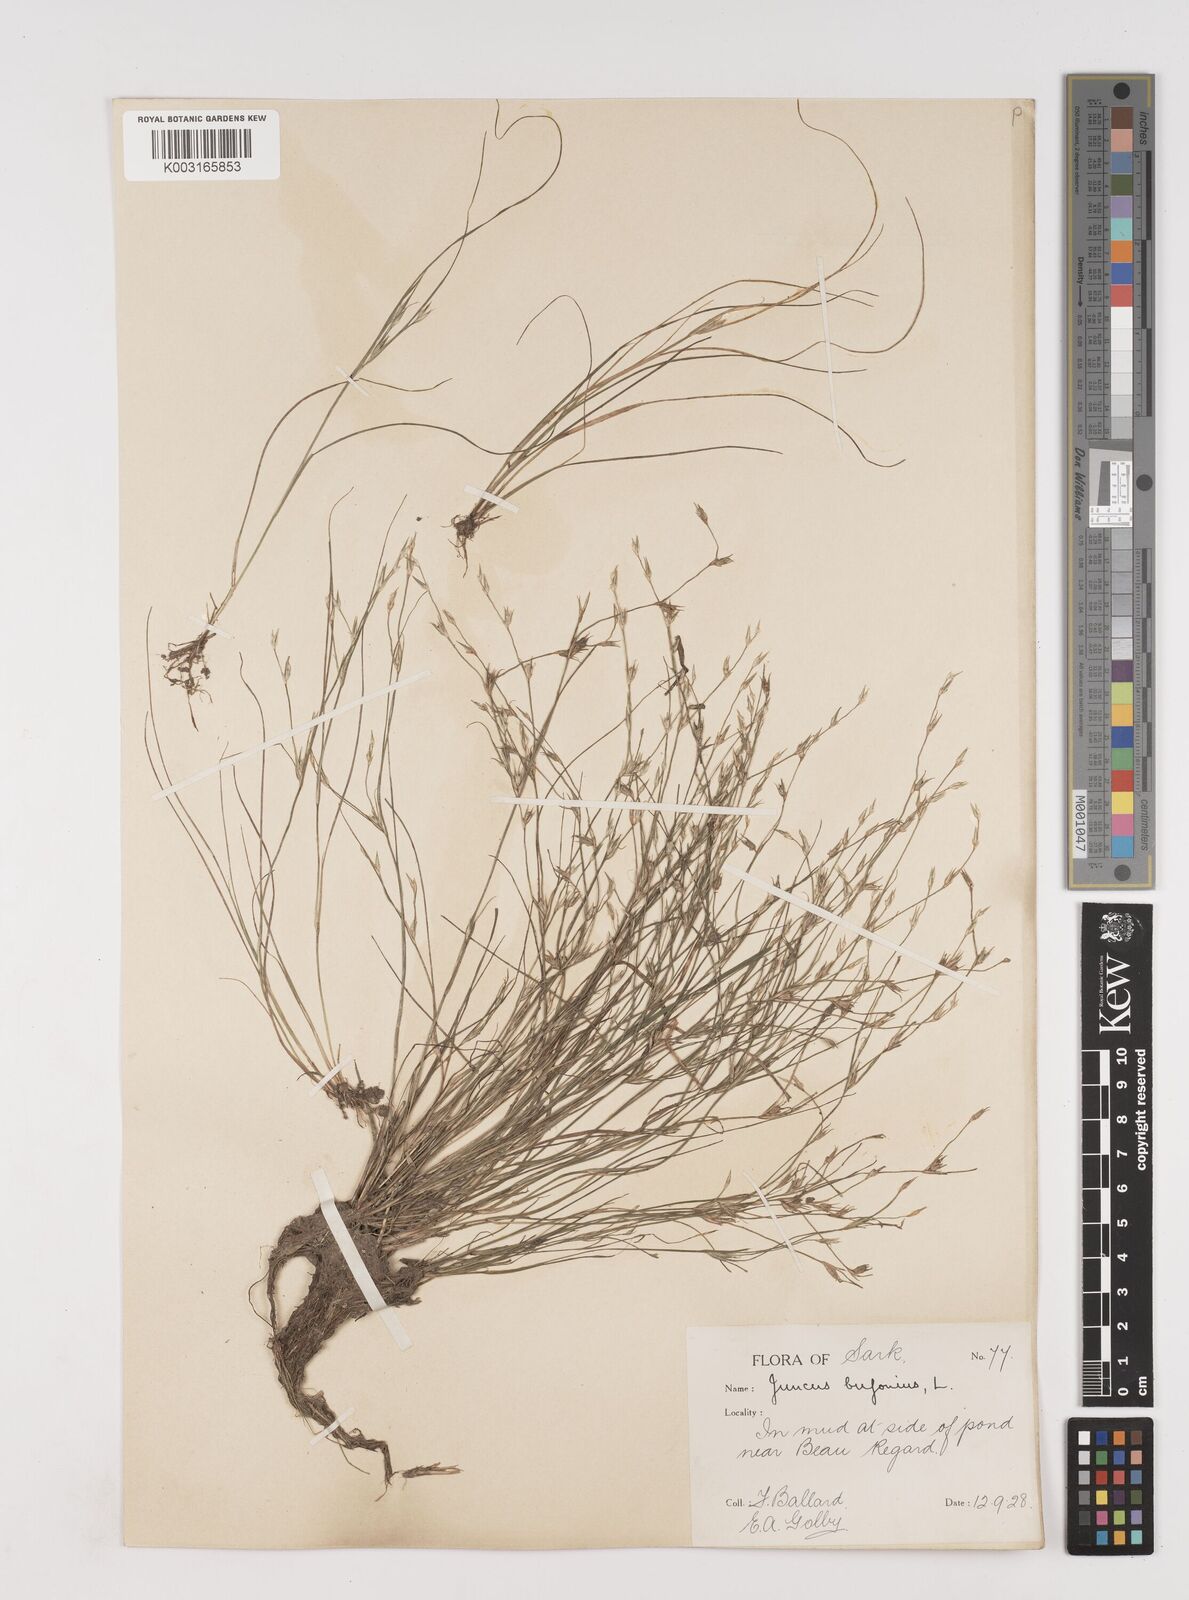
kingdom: Plantae
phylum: Tracheophyta
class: Liliopsida
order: Poales
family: Juncaceae
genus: Juncus
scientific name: Juncus bufonius
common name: Toad rush
